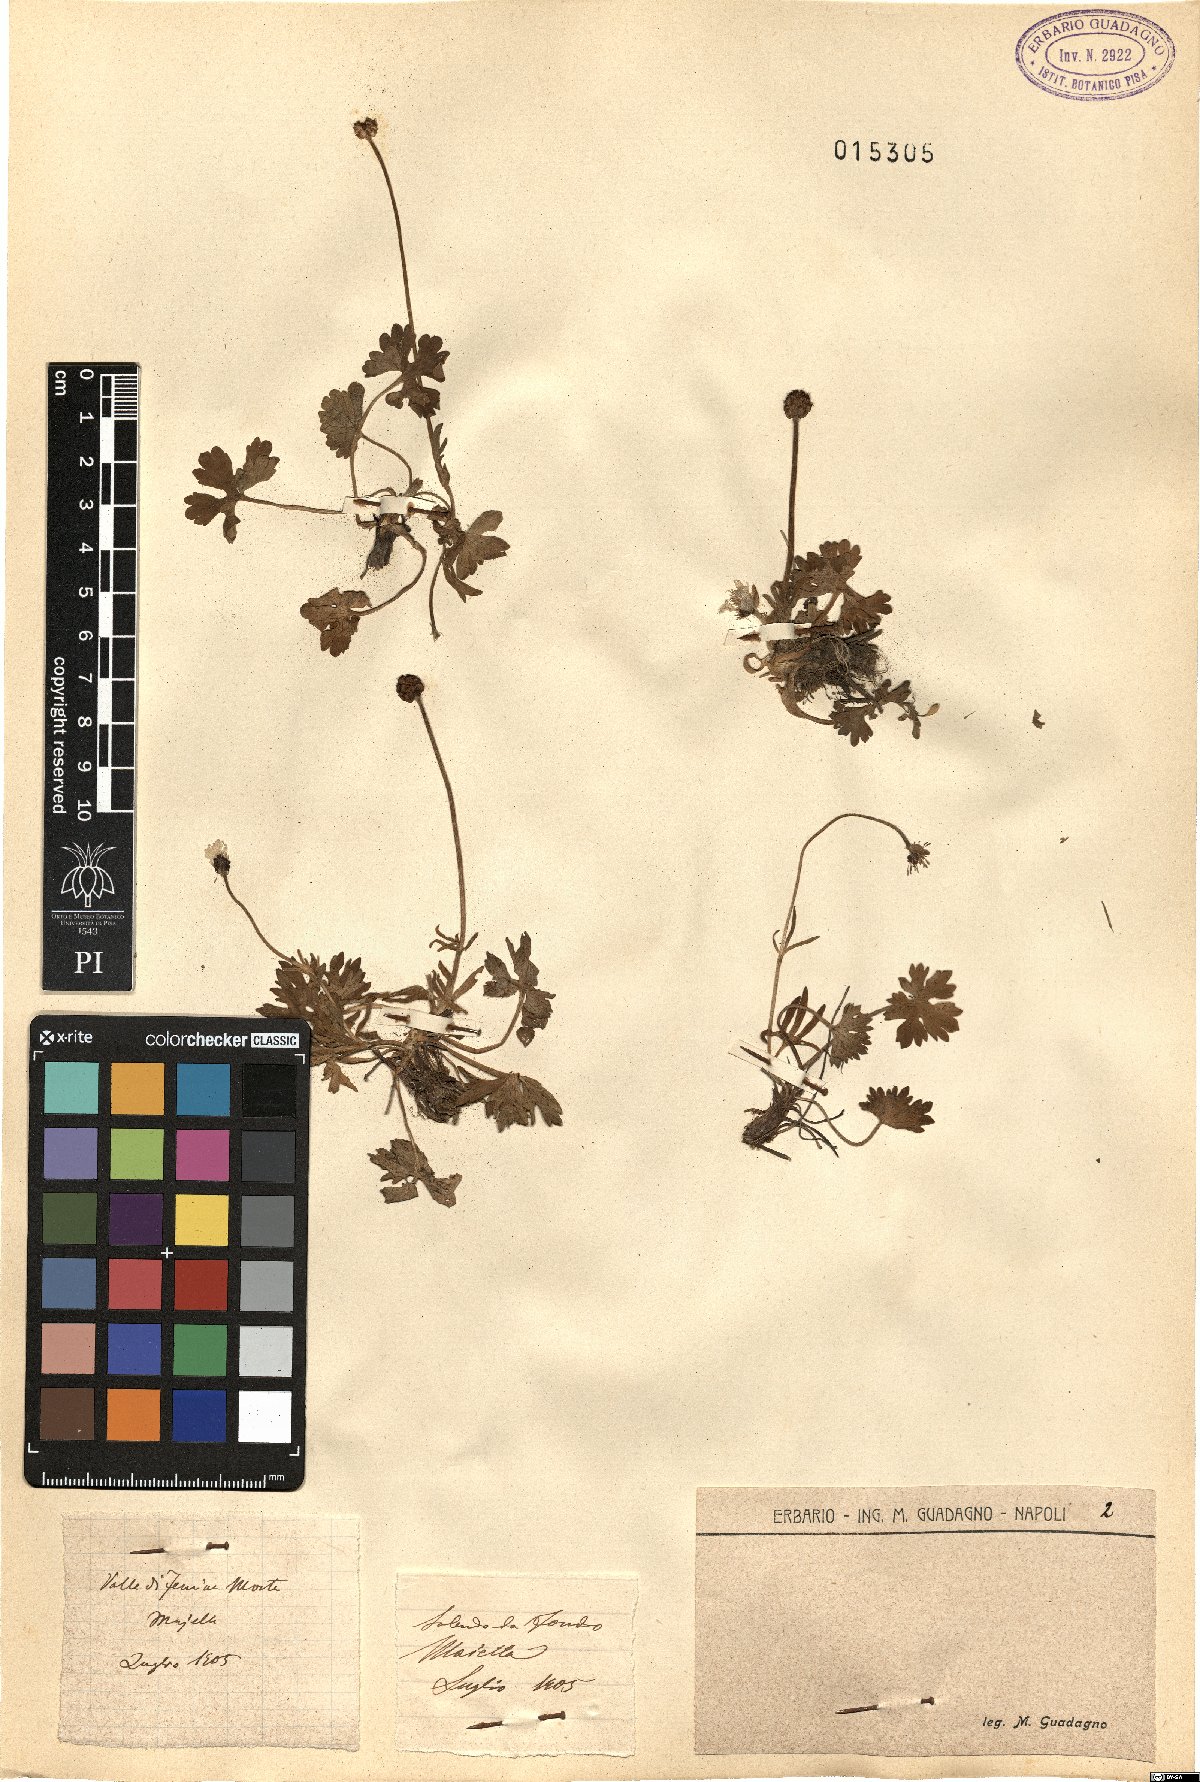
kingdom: Plantae
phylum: Tracheophyta
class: Magnoliopsida
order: Ranunculales
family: Ranunculaceae
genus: Ranunculus
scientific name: Ranunculus
